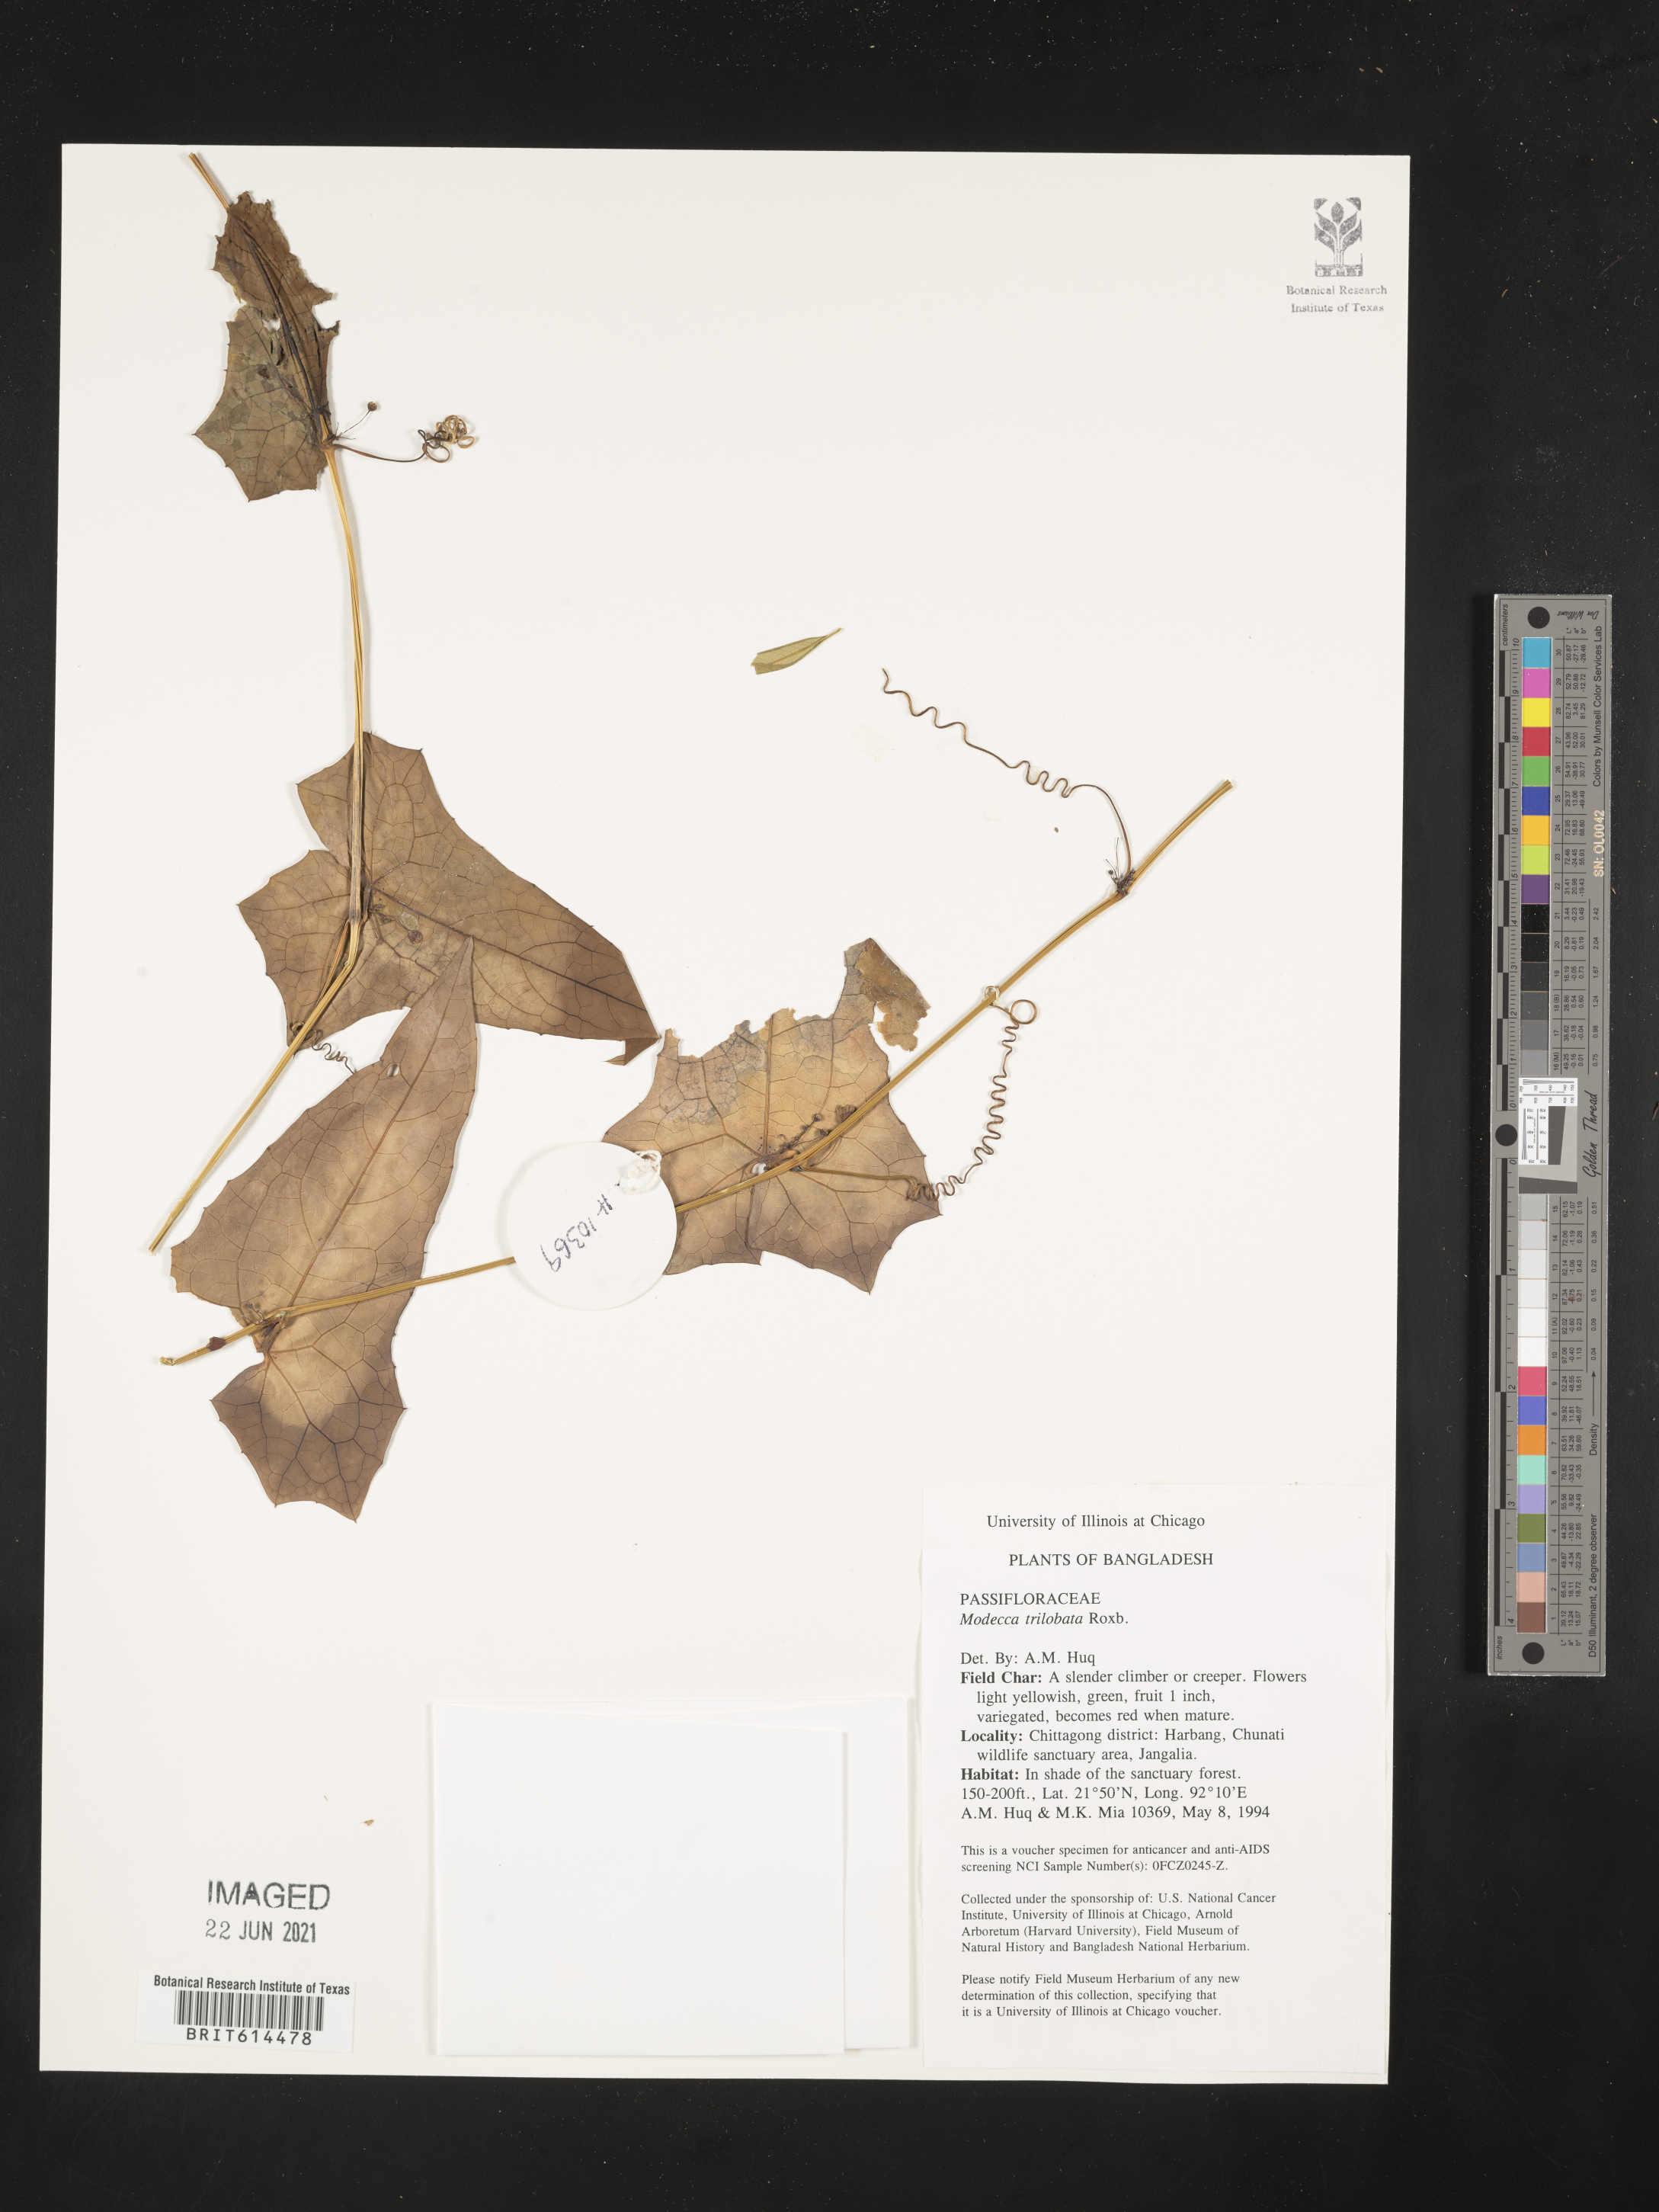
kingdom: Plantae
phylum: Tracheophyta
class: Magnoliopsida
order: Malpighiales
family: Passifloraceae
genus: Adenia
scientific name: Adenia trilobata
